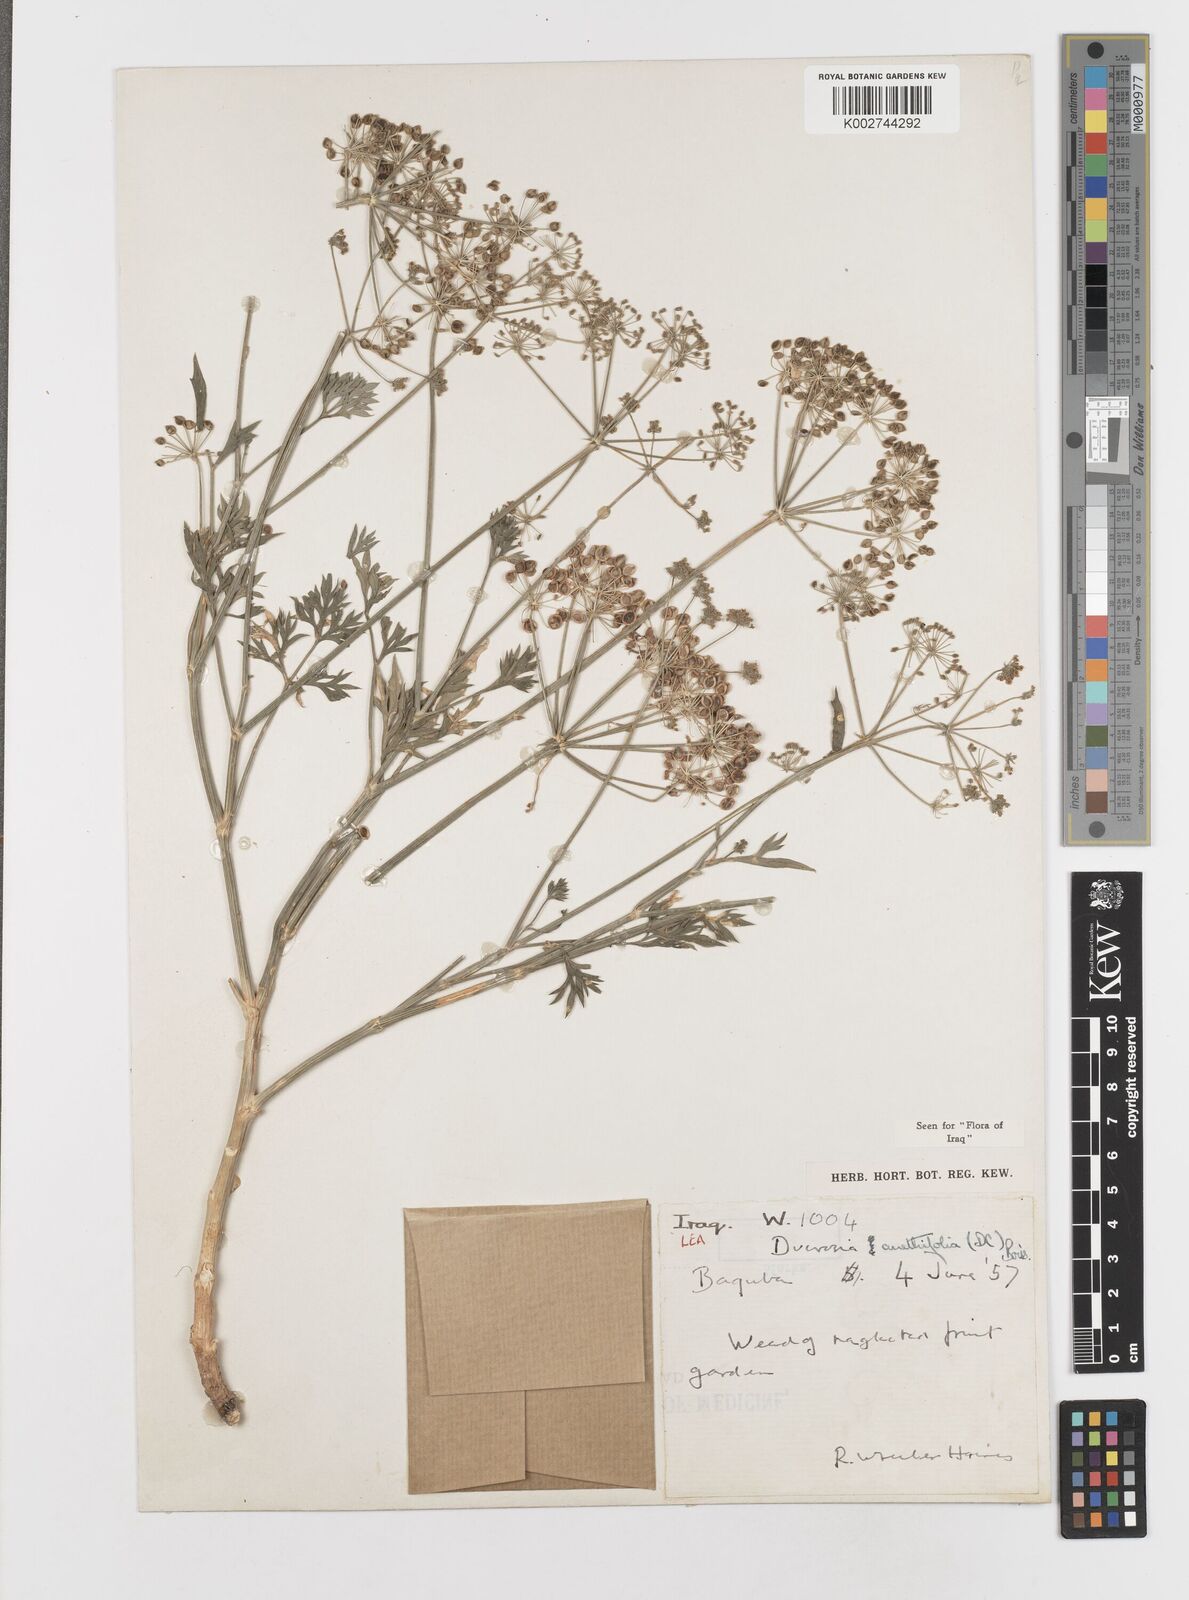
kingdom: Plantae
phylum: Tracheophyta
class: Magnoliopsida
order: Apiales
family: Apiaceae
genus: Ducrosia
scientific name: Ducrosia anethifolia
